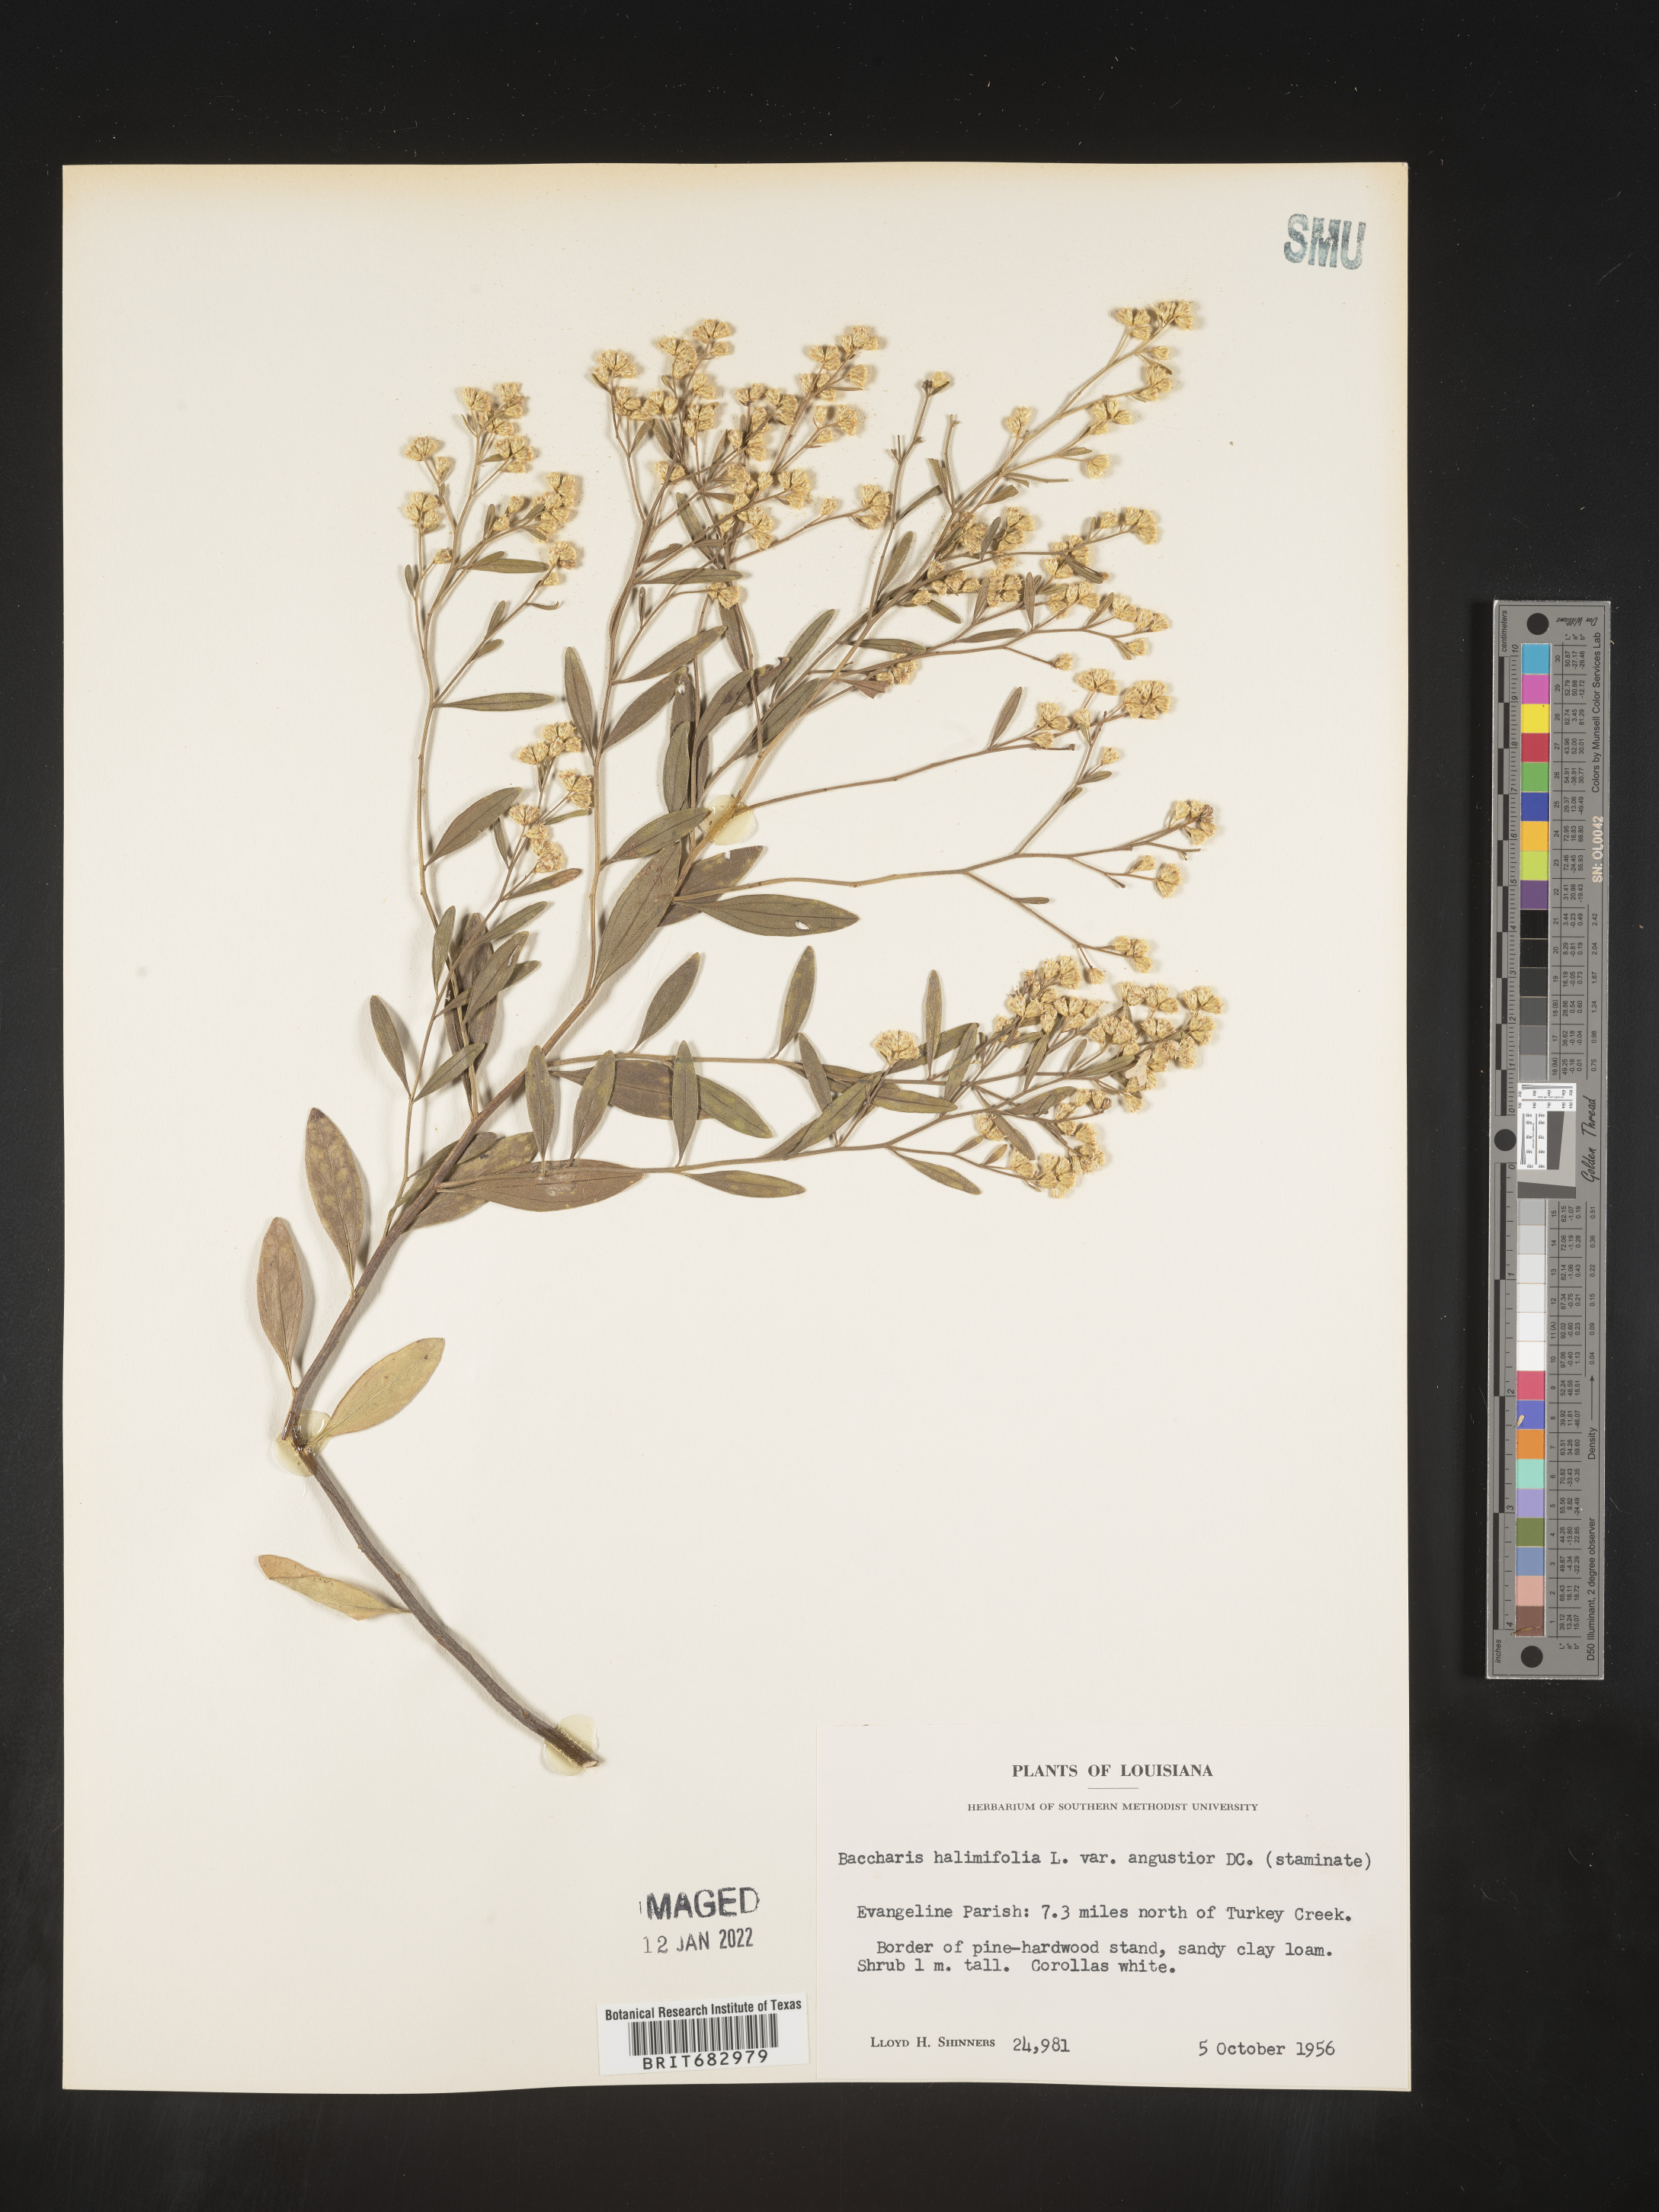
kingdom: Plantae
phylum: Tracheophyta
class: Magnoliopsida
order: Asterales
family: Asteraceae
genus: Nidorella
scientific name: Nidorella ivifolia
